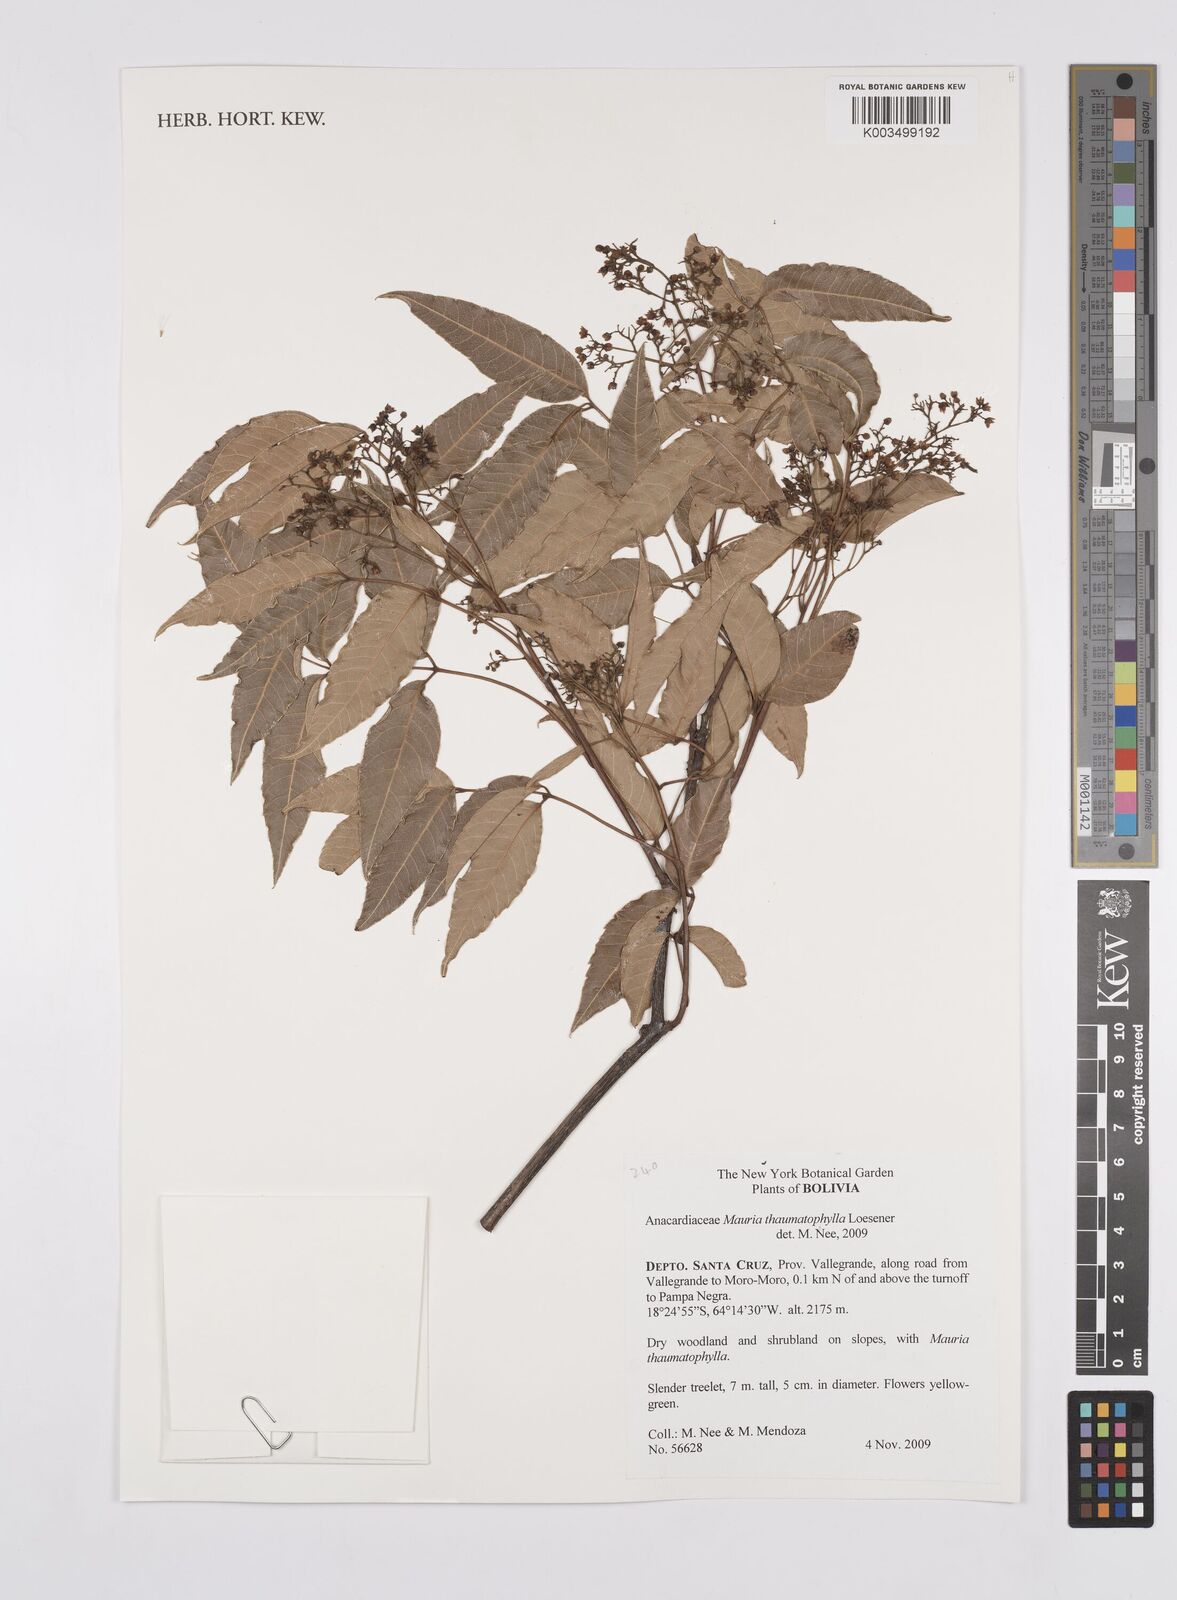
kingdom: Plantae
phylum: Tracheophyta
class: Magnoliopsida
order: Sapindales
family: Anacardiaceae
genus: Mauria
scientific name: Mauria thaumatophylla
